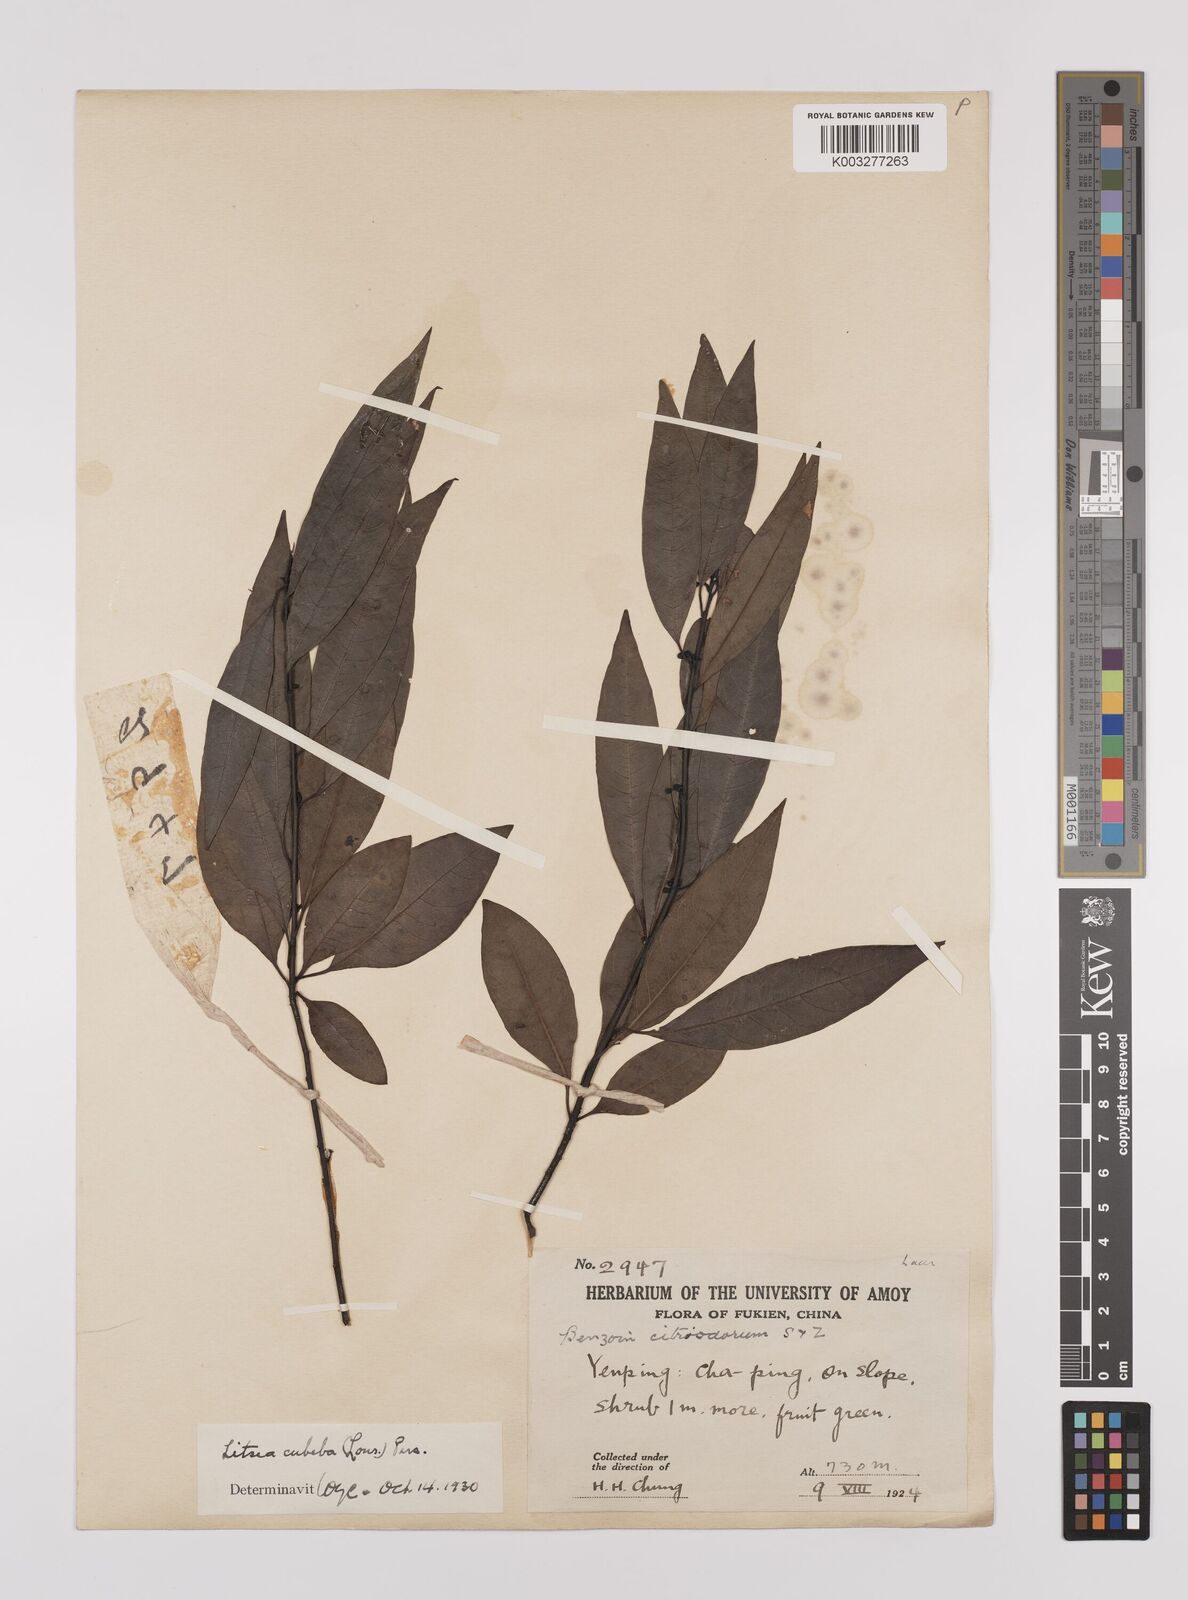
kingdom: Plantae
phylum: Tracheophyta
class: Magnoliopsida
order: Laurales
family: Lauraceae
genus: Litsea
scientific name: Litsea cubeba
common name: Mountain-pepper
